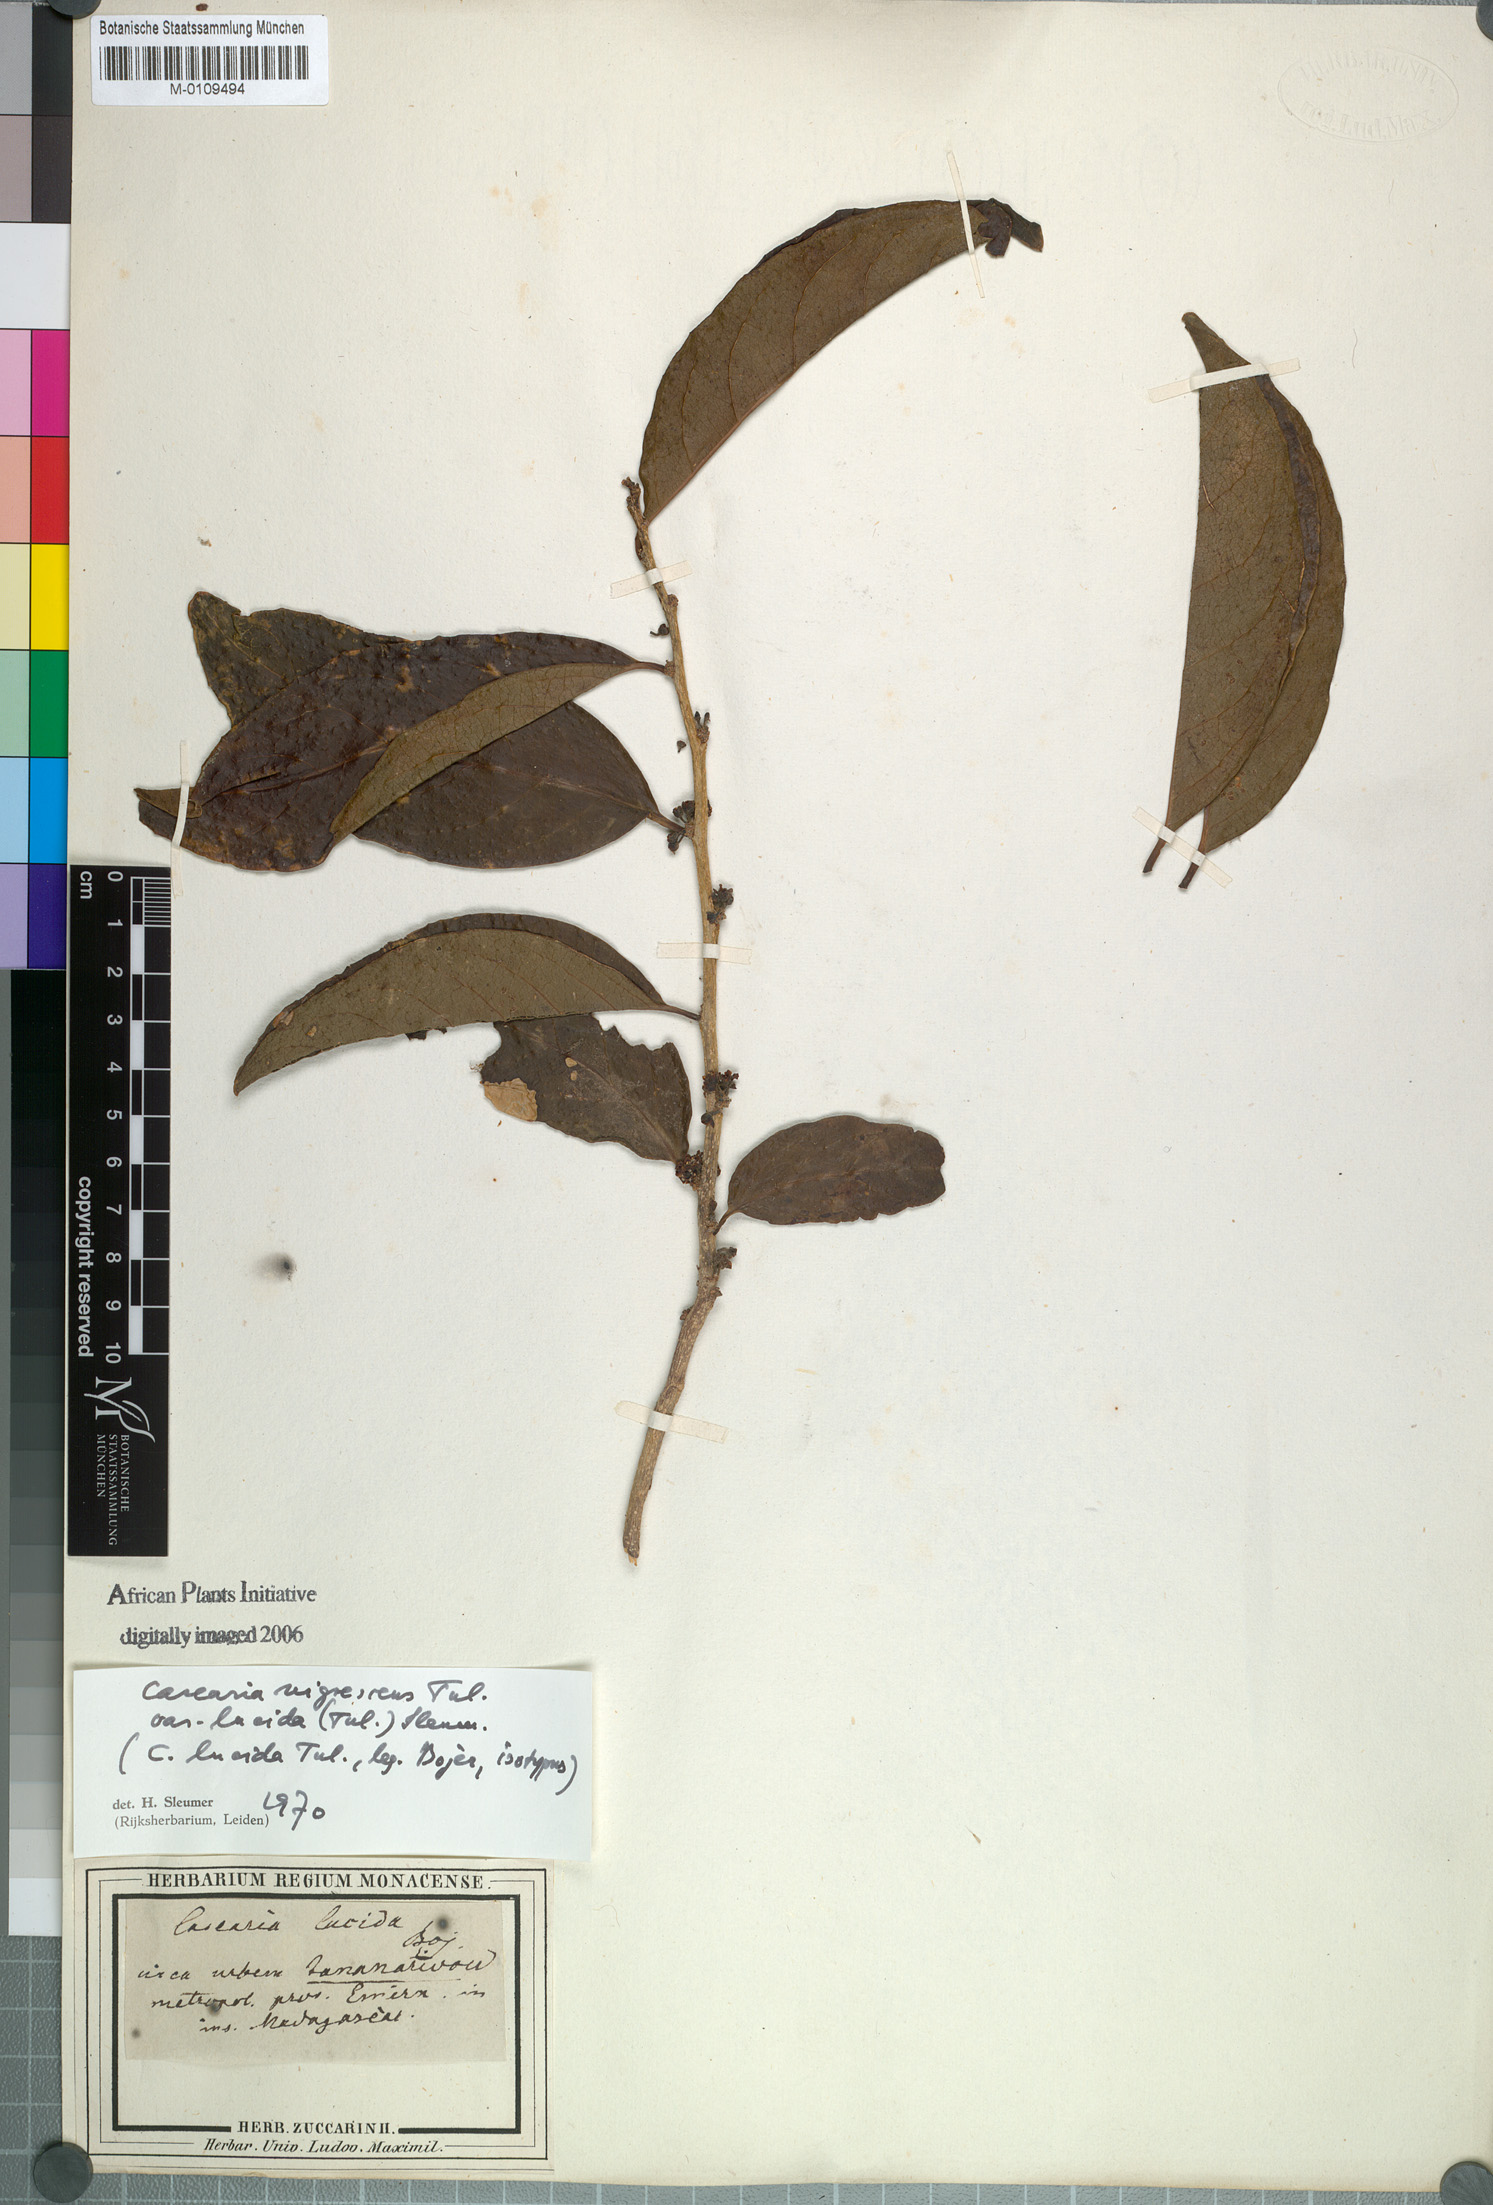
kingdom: Plantae
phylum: Tracheophyta
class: Magnoliopsida
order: Malpighiales
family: Salicaceae
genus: Casearia
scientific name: Casearia nigrescens
